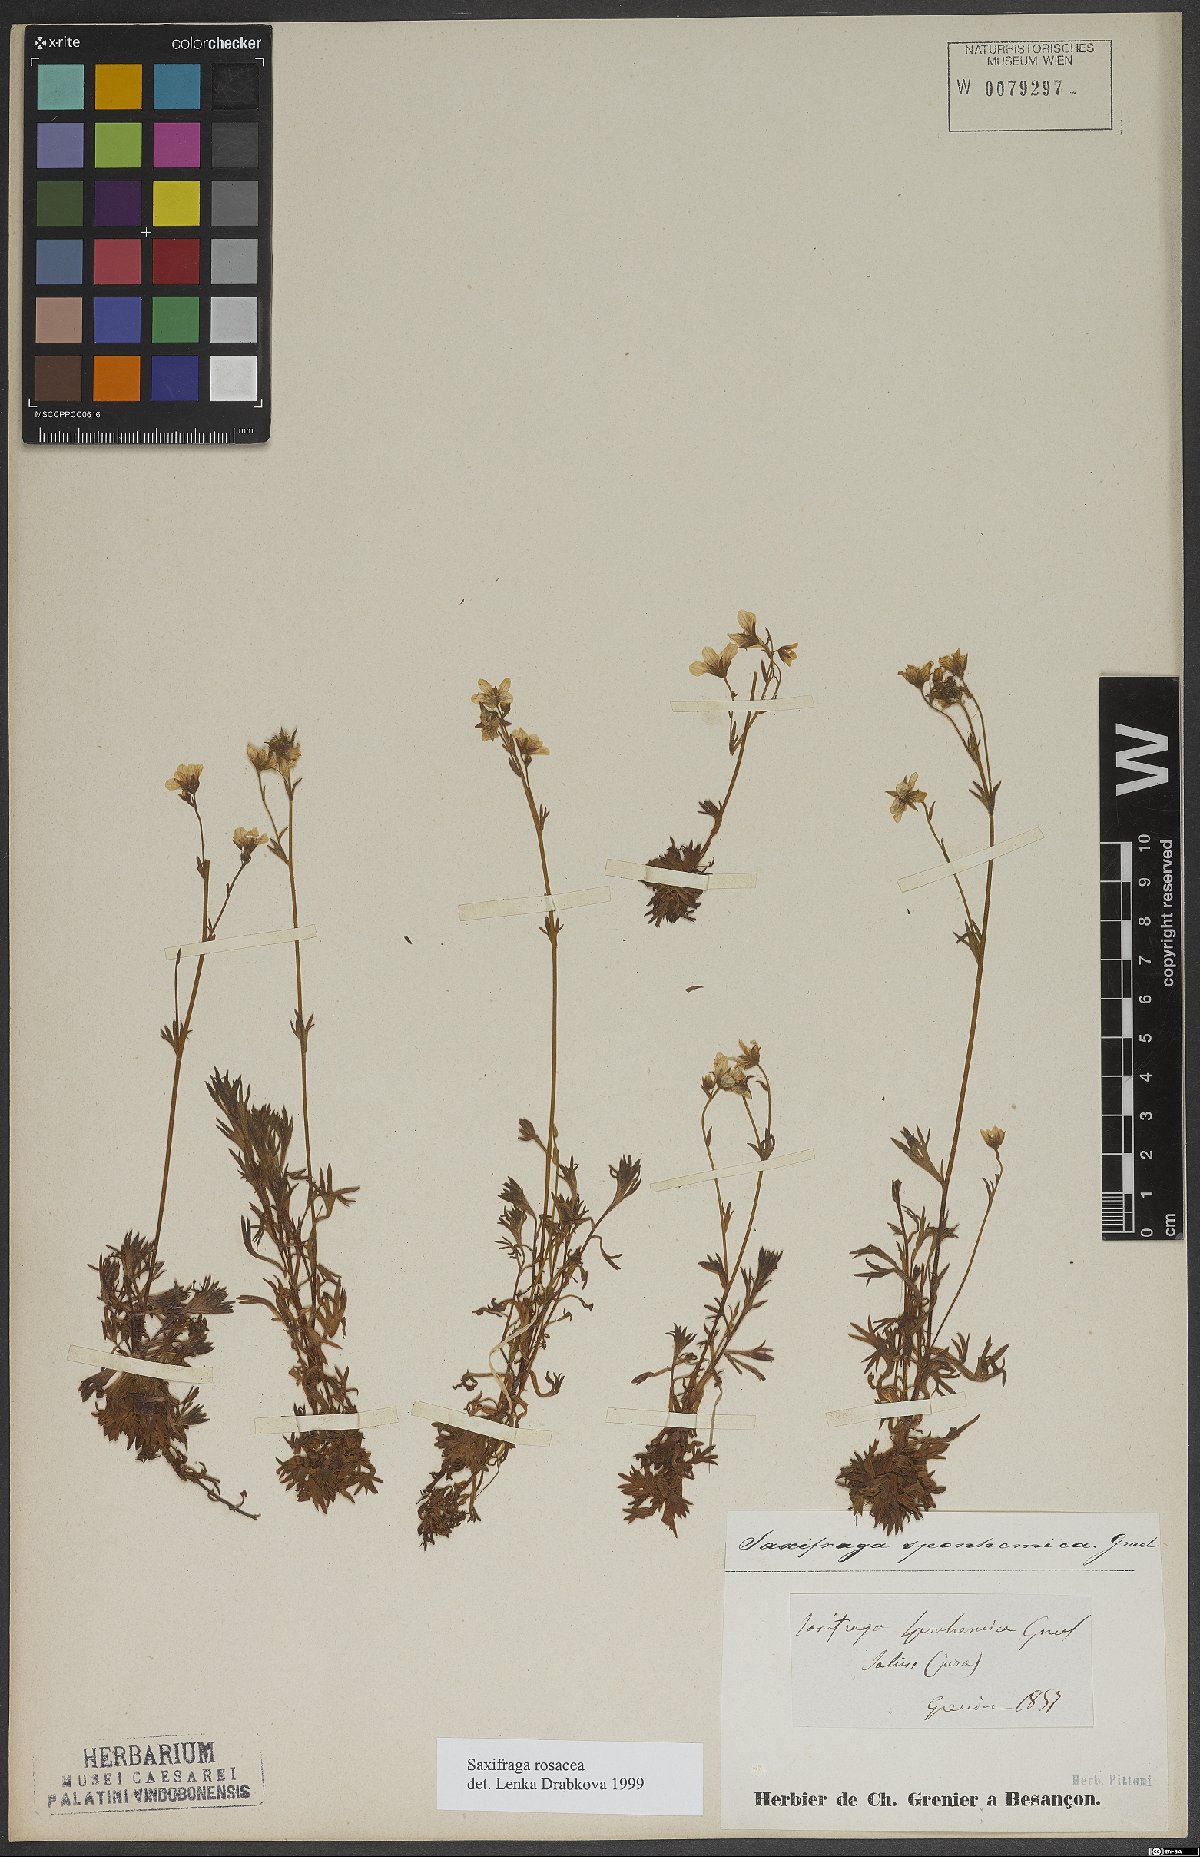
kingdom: Plantae
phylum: Tracheophyta
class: Magnoliopsida
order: Saxifragales
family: Saxifragaceae
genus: Saxifraga
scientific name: Saxifraga rosacea
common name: Irish saxifrage
